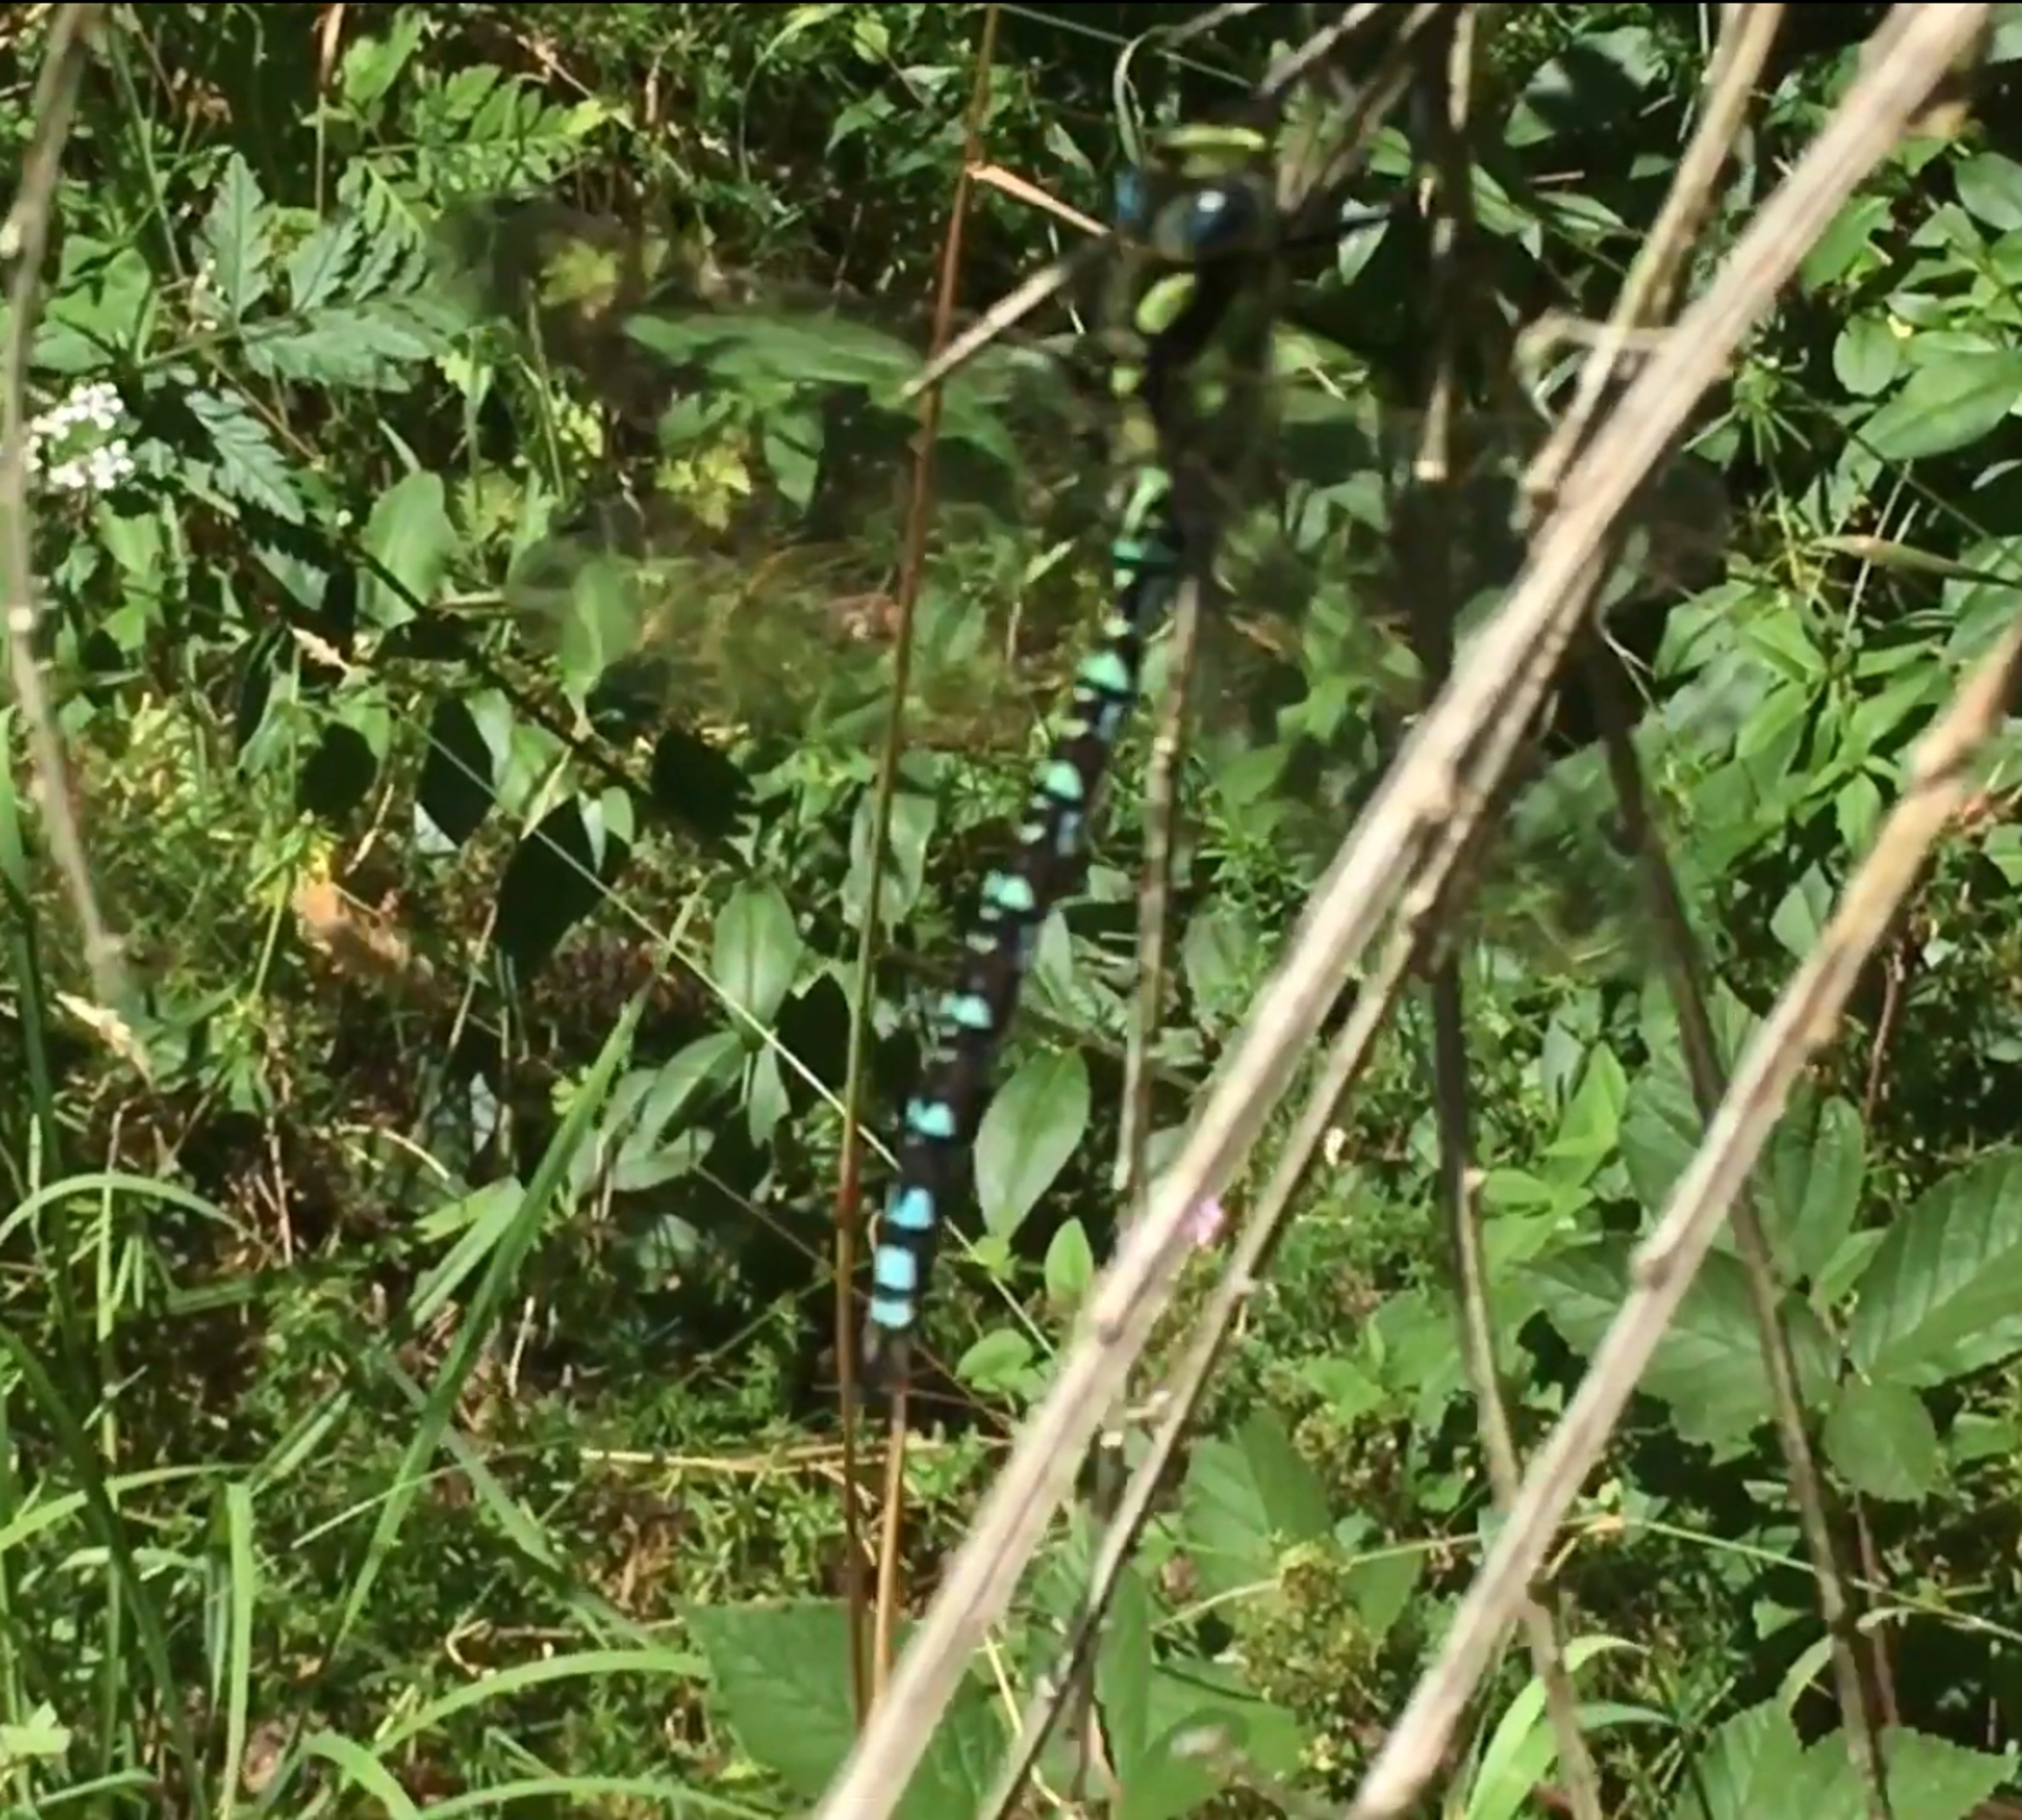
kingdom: Animalia
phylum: Arthropoda
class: Insecta
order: Odonata
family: Aeshnidae
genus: Aeshna
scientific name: Aeshna cyanea
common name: Blå mosaikguldsmed
